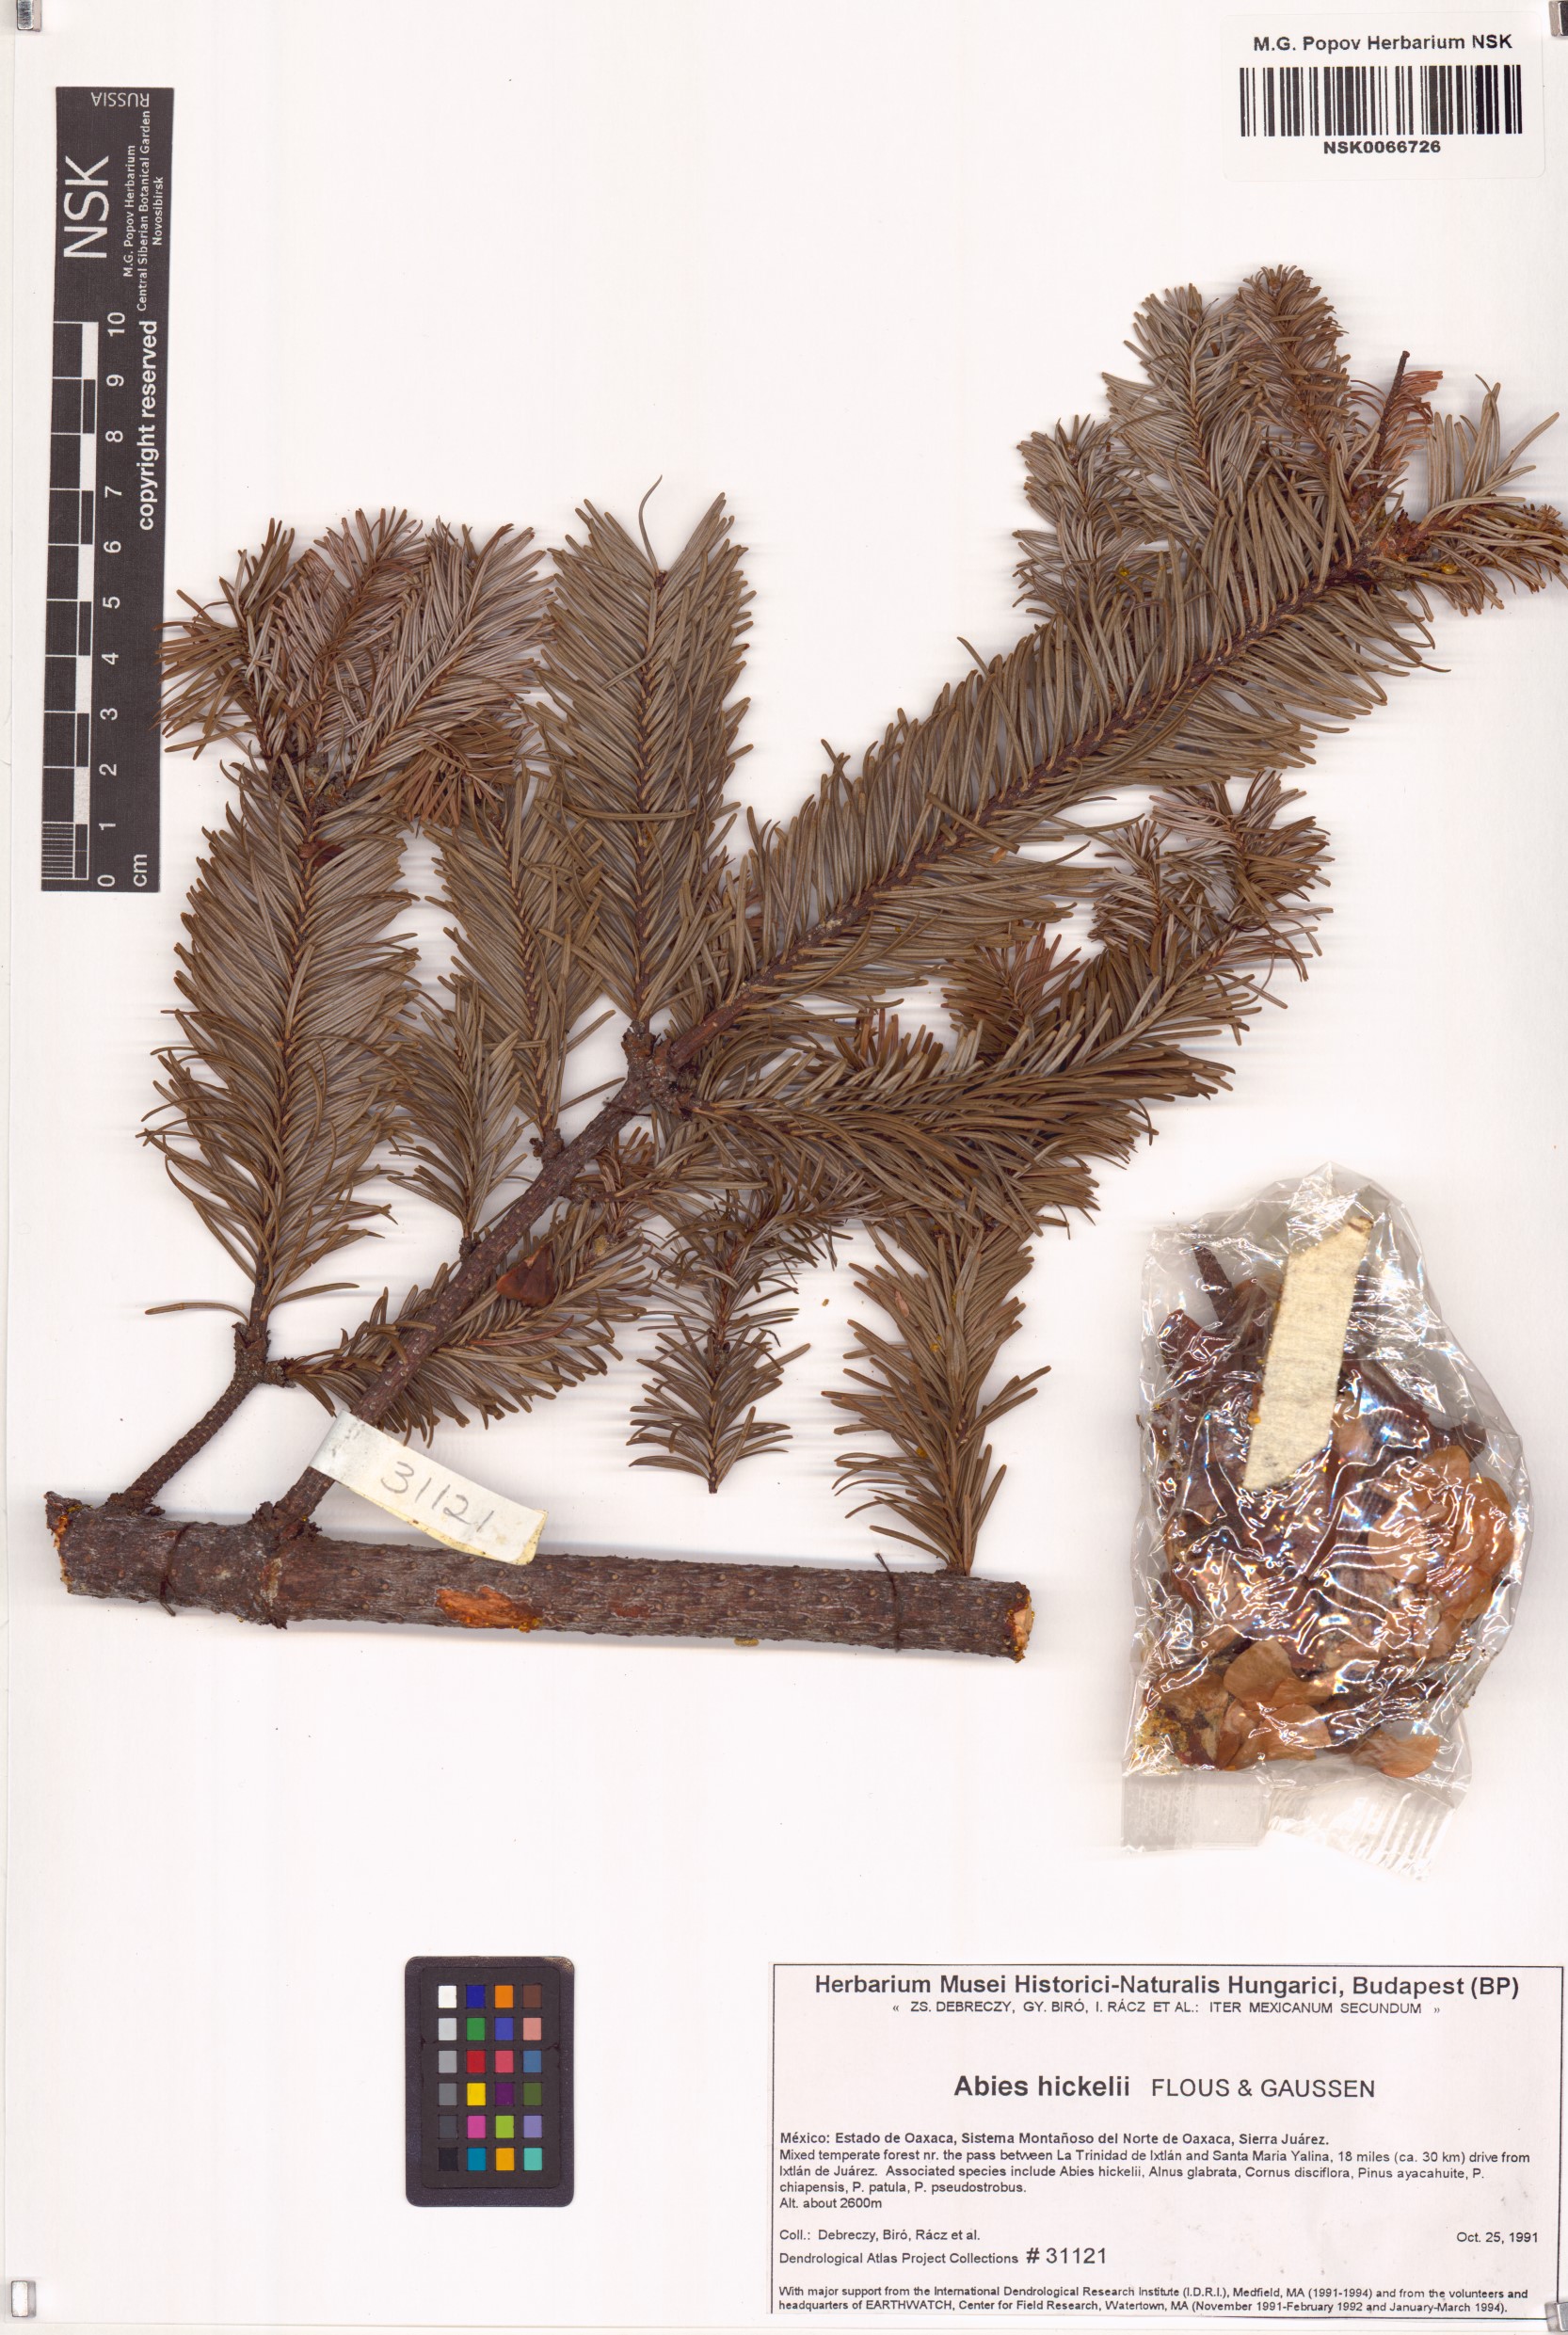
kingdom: Plantae
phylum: Tracheophyta
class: Pinopsida
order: Pinales
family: Pinaceae
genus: Abies
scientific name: Abies hickelii
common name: Hickel's fir
